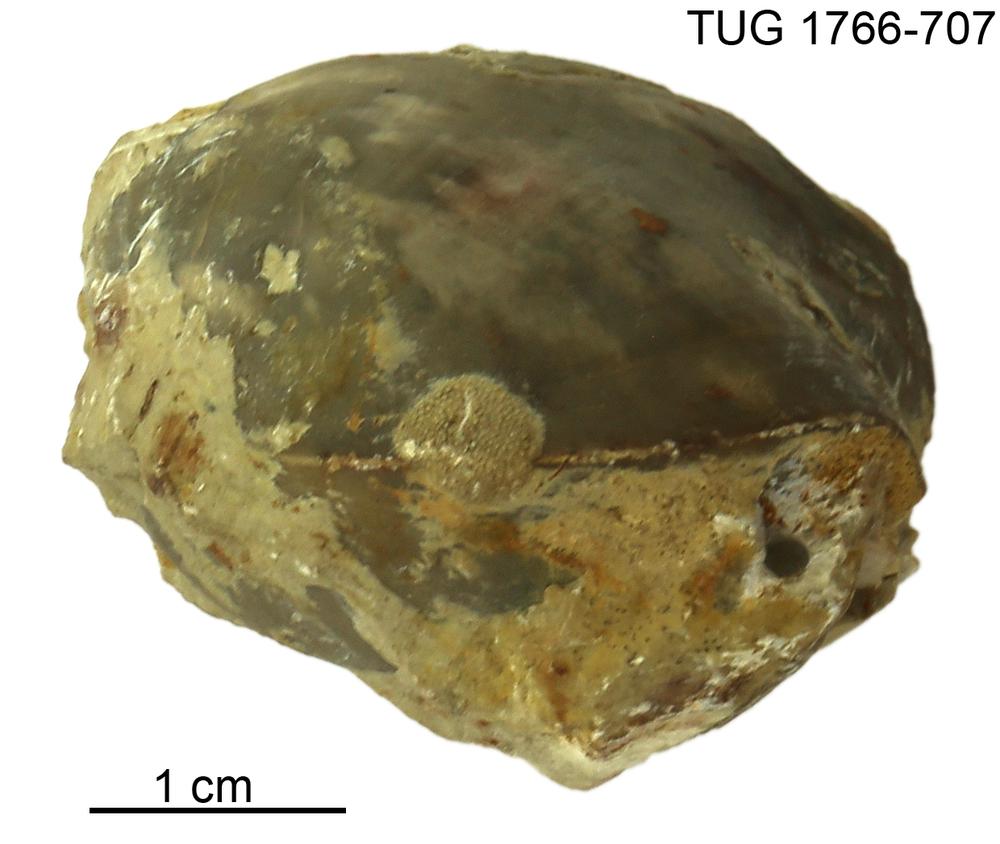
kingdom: Animalia
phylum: Bryozoa
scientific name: Bryozoa
